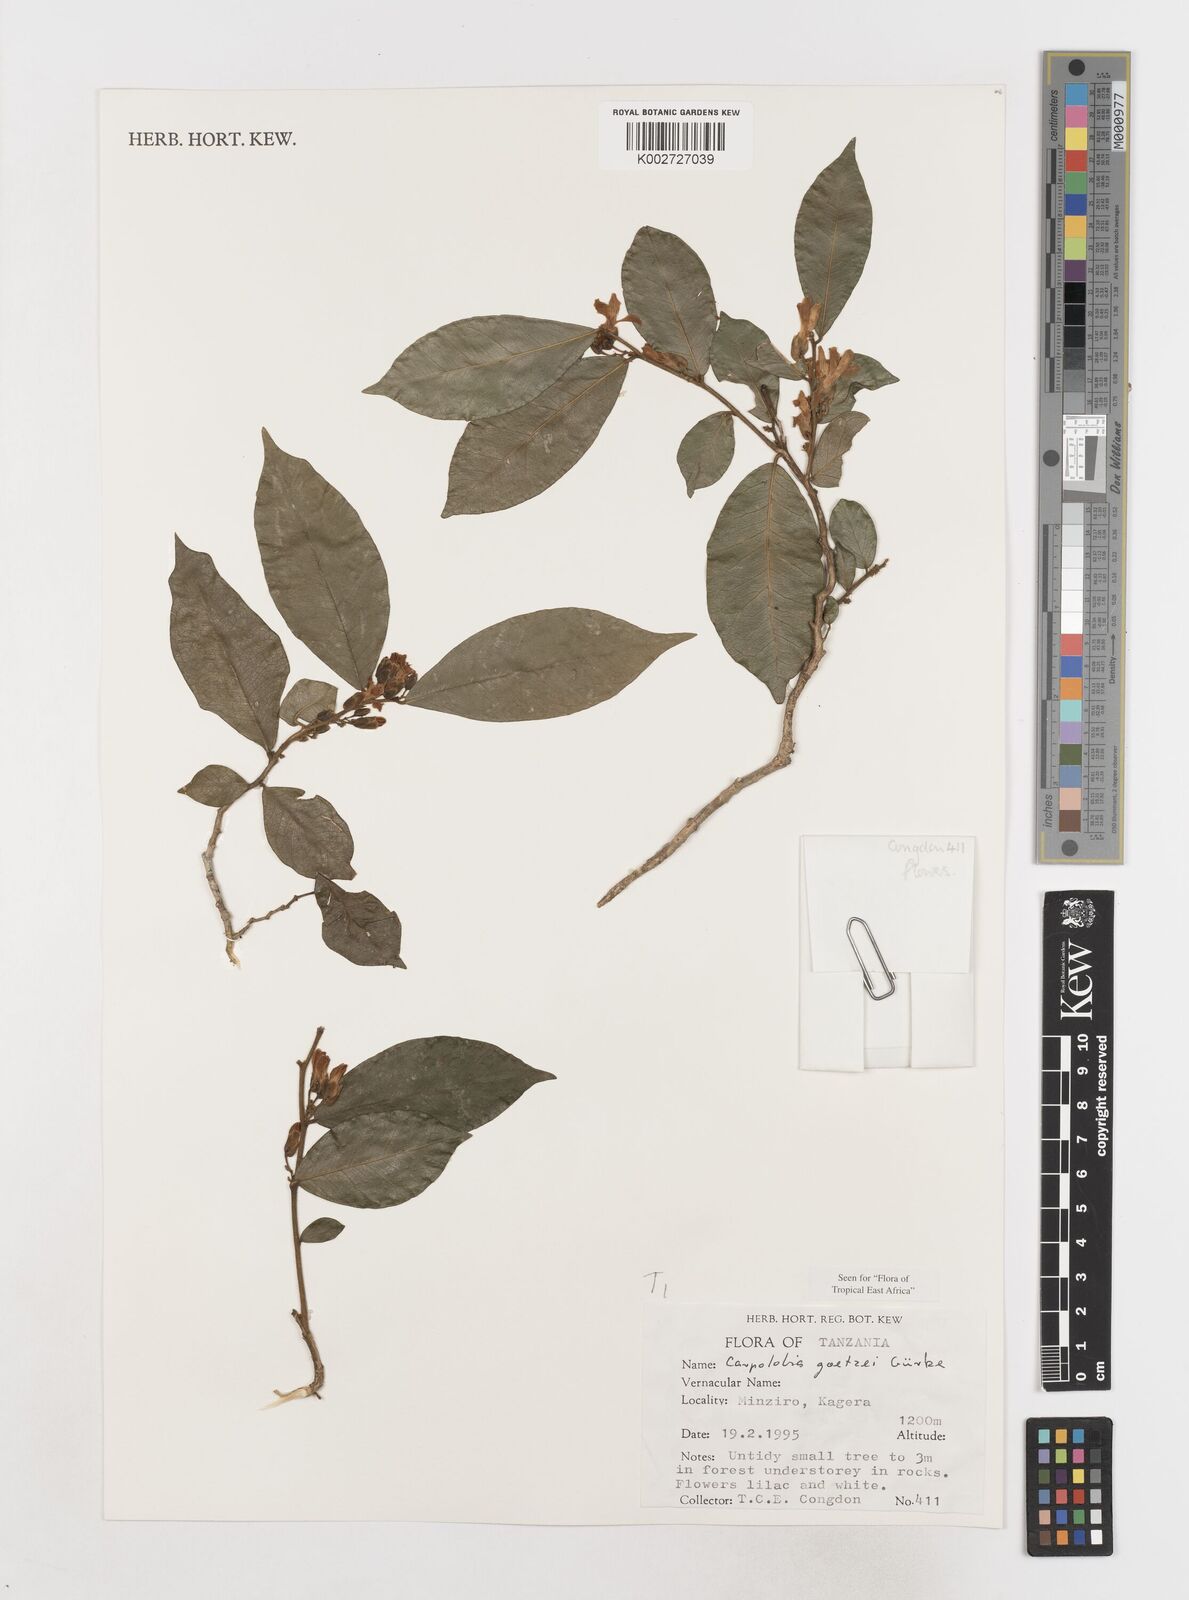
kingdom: Plantae
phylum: Tracheophyta
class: Magnoliopsida
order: Fabales
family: Polygalaceae
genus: Carpolobia
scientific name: Carpolobia goetzei
